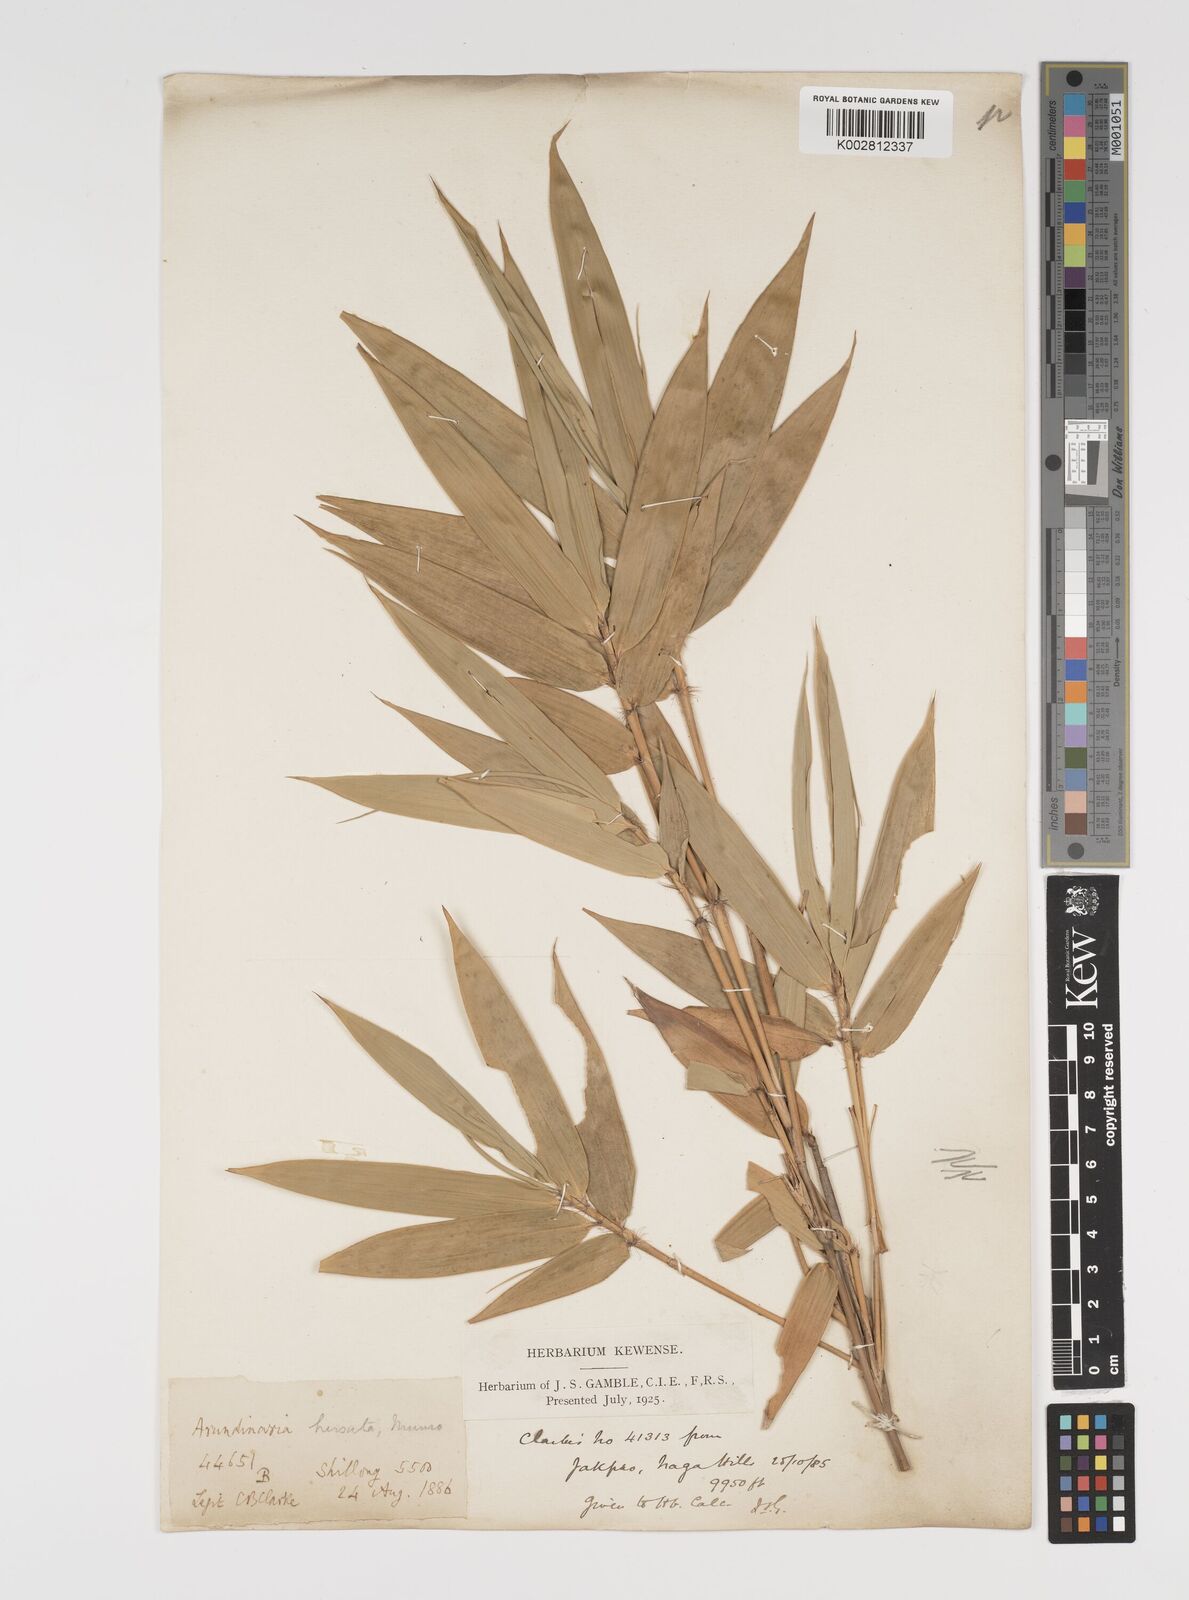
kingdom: Plantae
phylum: Tracheophyta
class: Liliopsida
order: Poales
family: Poaceae
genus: Yushania
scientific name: Yushania hirsuta
